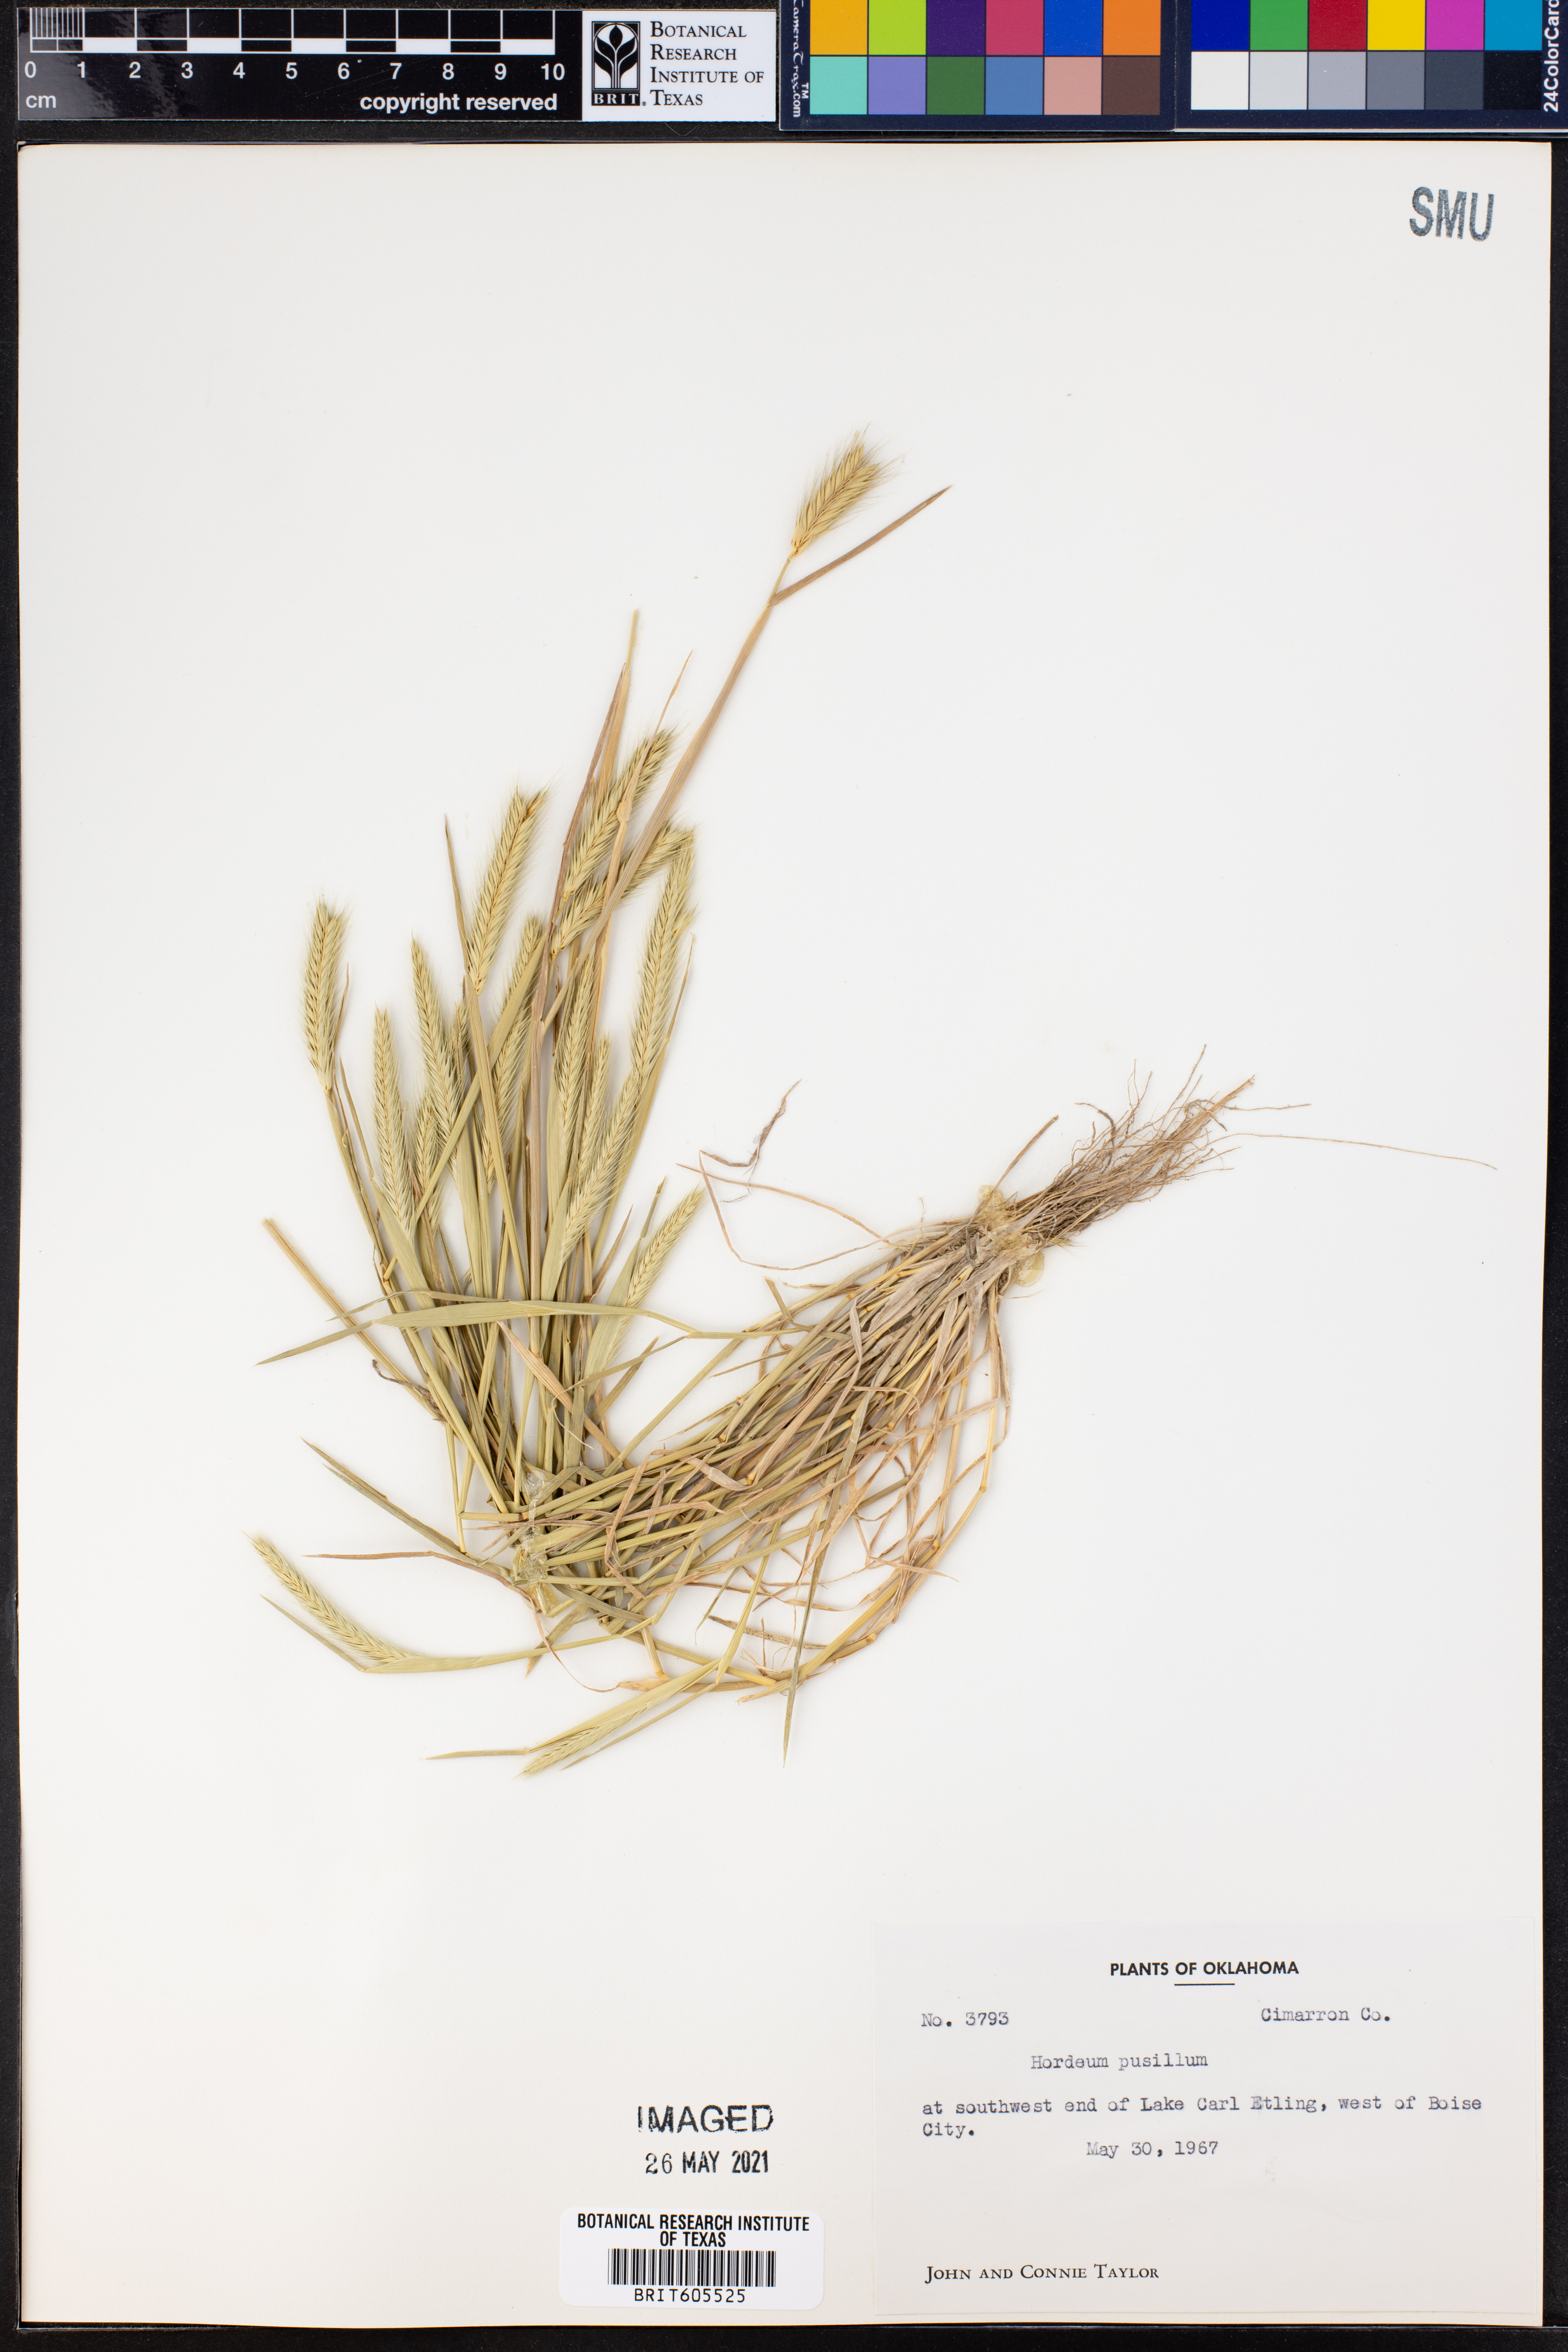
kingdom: Plantae
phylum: Tracheophyta
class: Liliopsida
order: Poales
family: Poaceae
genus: Hordeum
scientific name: Hordeum pusillum
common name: Little barley
